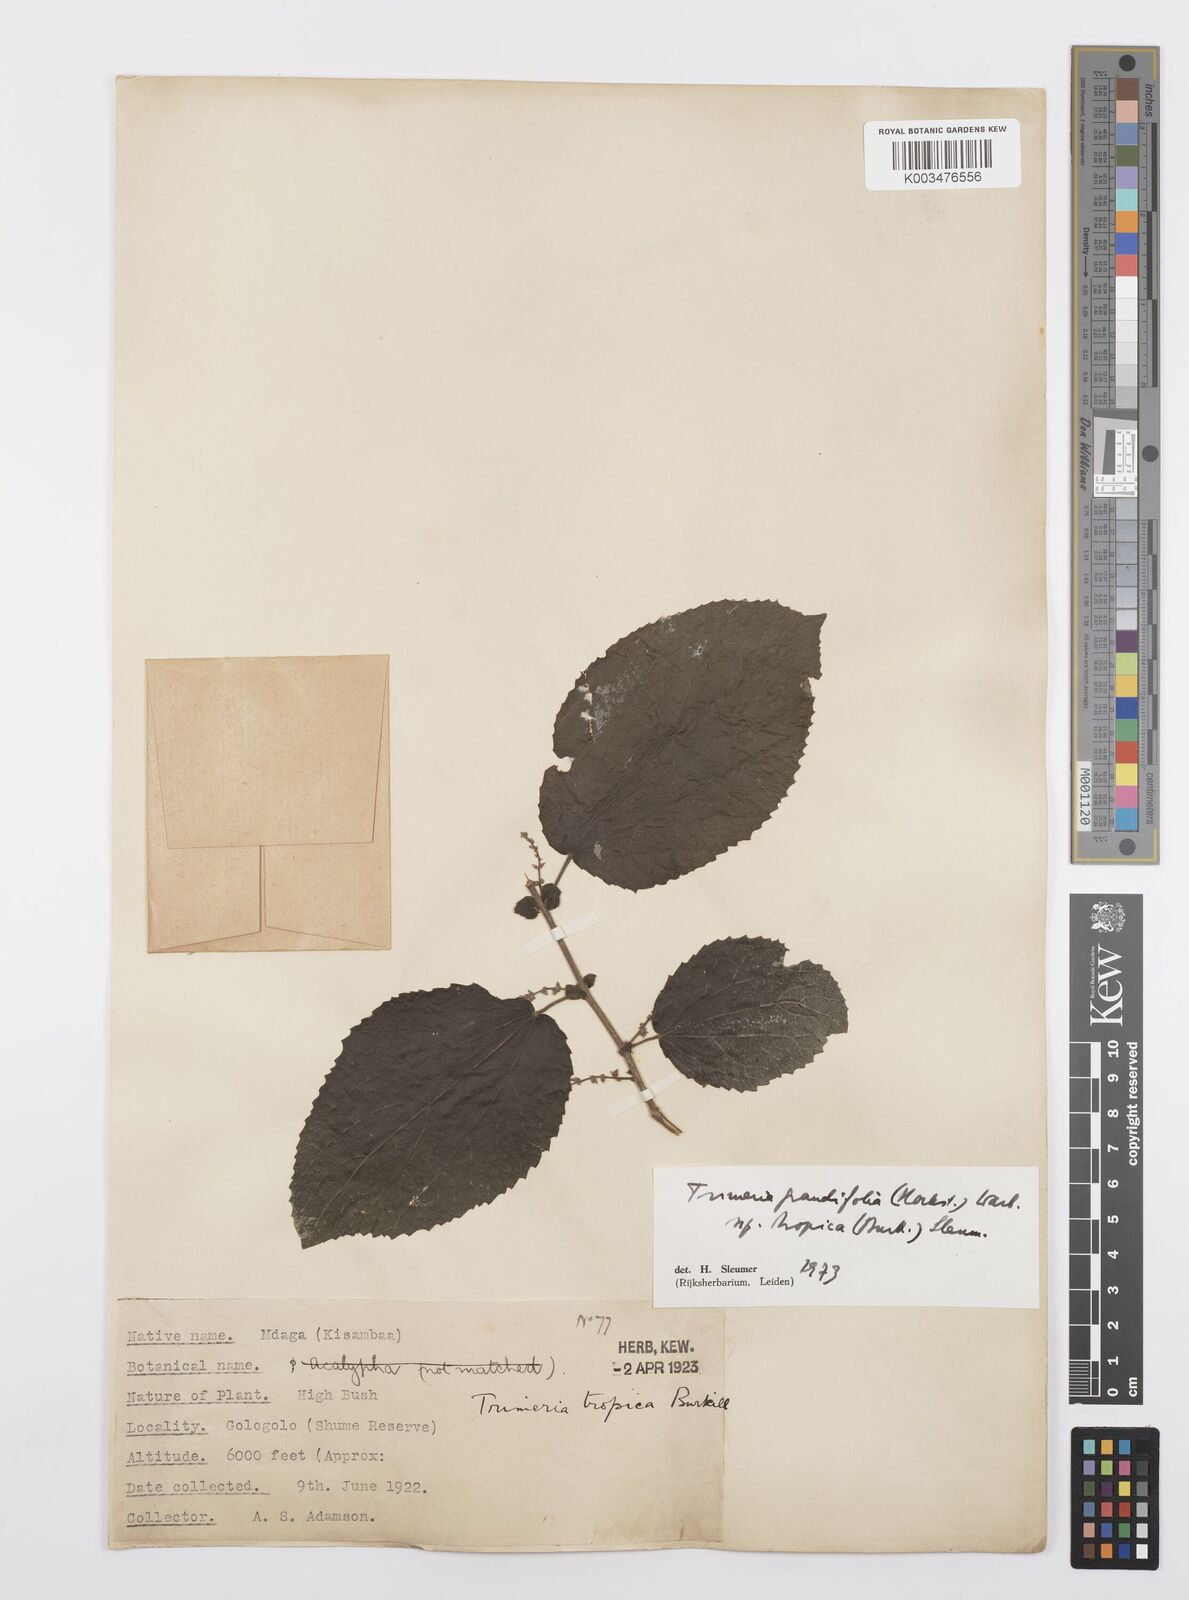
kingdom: Plantae
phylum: Tracheophyta
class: Magnoliopsida
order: Malpighiales
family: Salicaceae
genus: Trimeria
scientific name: Trimeria grandifolia
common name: Wild mulberry
